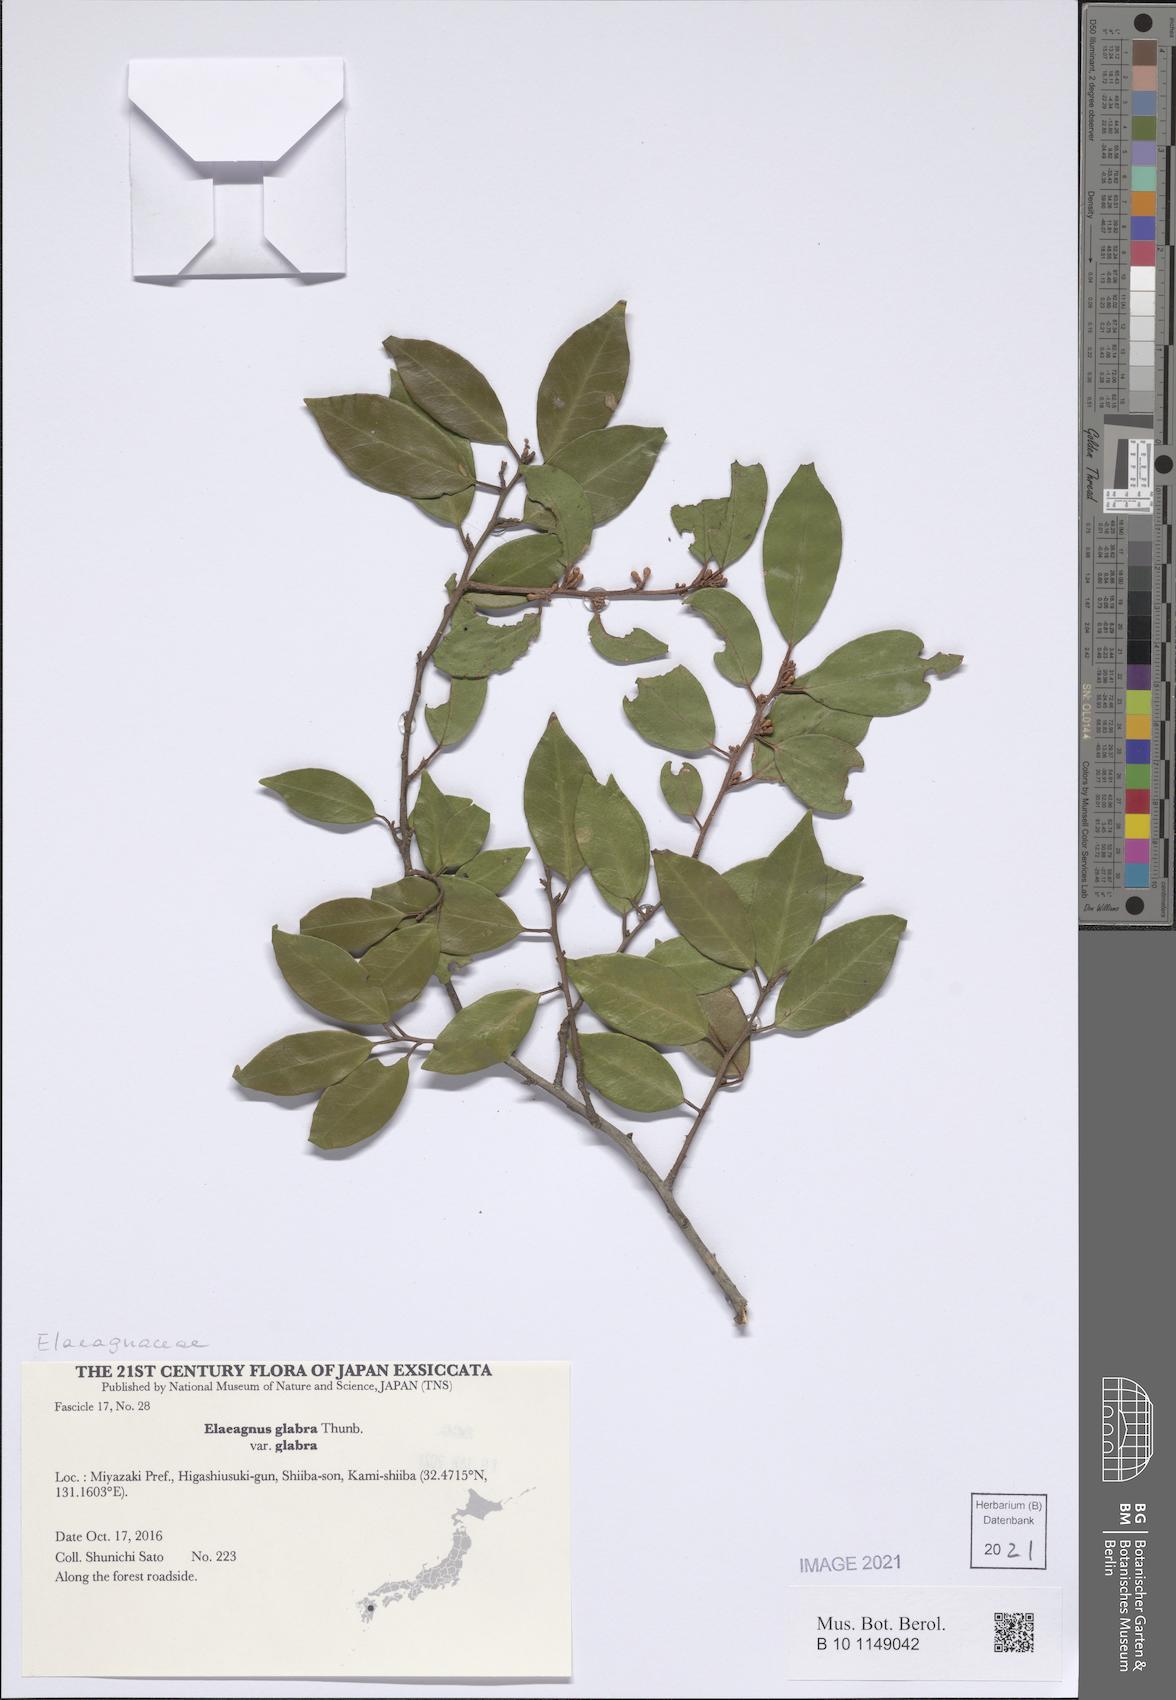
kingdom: Plantae
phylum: Tracheophyta
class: Magnoliopsida
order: Rosales
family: Elaeagnaceae
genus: Elaeagnus
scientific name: Elaeagnus glabra
